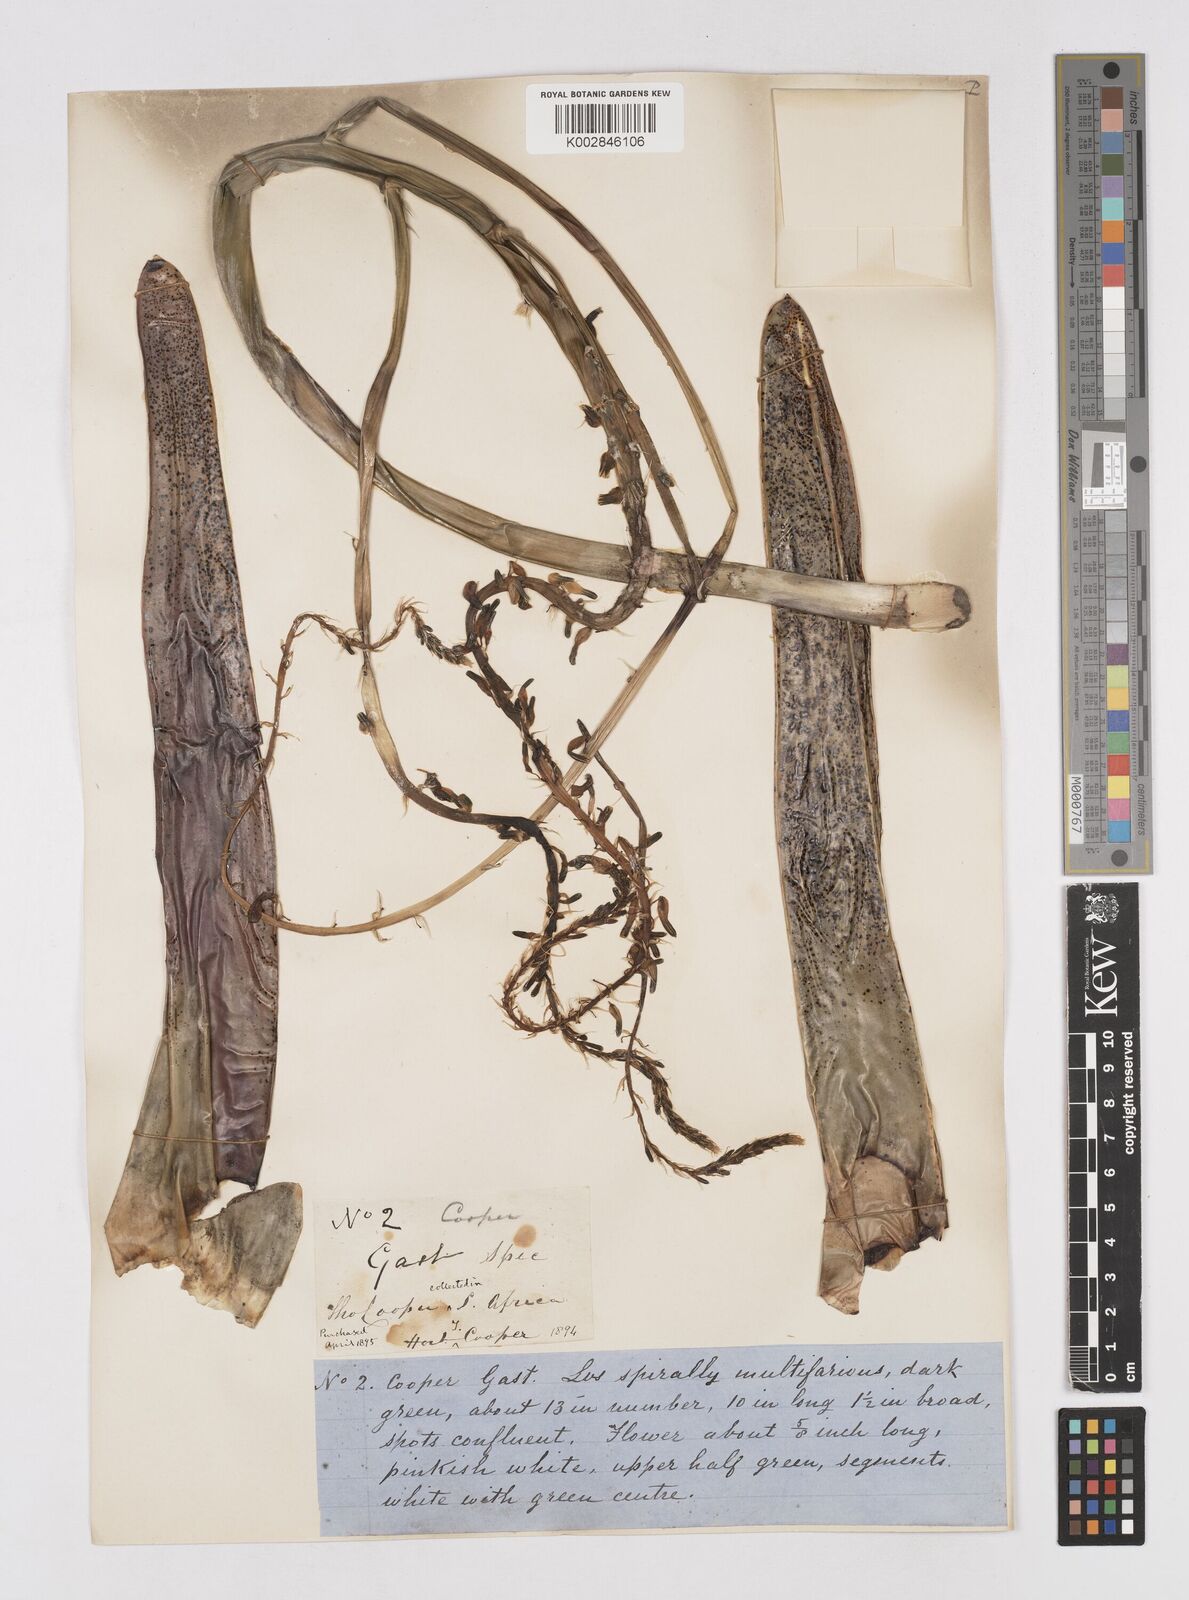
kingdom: Plantae
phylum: Tracheophyta
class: Liliopsida
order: Asparagales
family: Asphodelaceae
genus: Gasteria
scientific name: Gasteria
